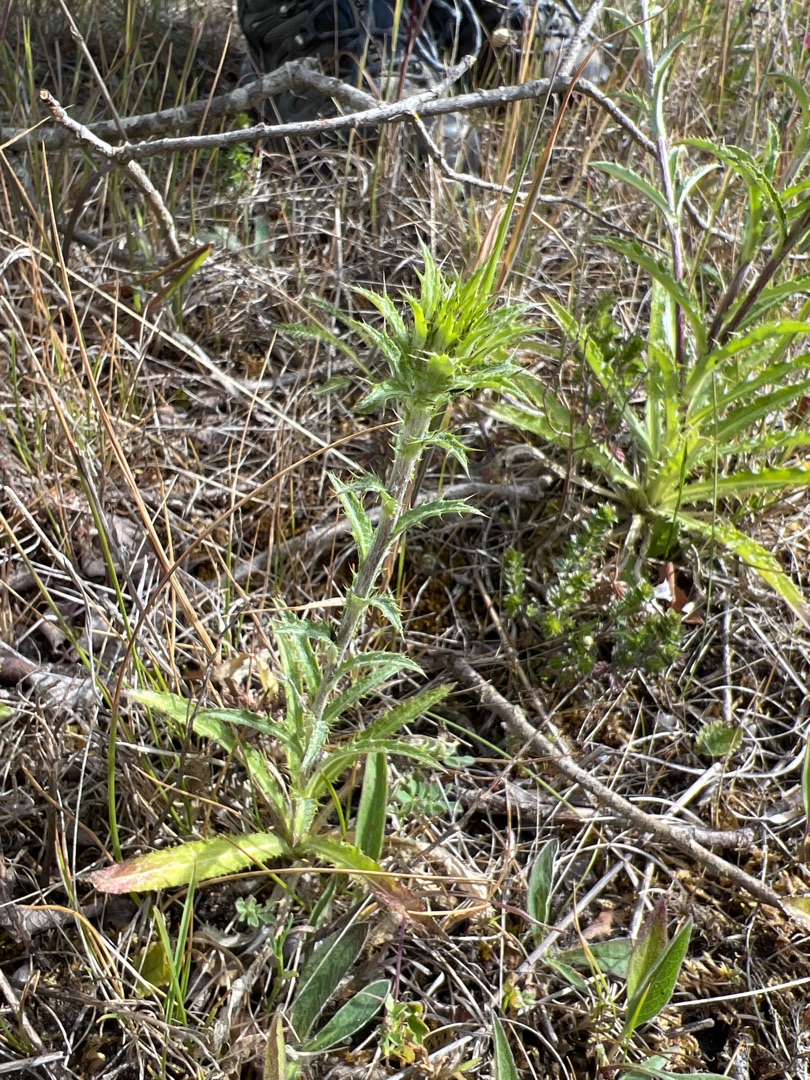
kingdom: Plantae
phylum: Tracheophyta
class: Magnoliopsida
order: Asterales
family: Asteraceae
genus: Carlina
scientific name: Carlina biebersteinii
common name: Langbladet bakketidsel
